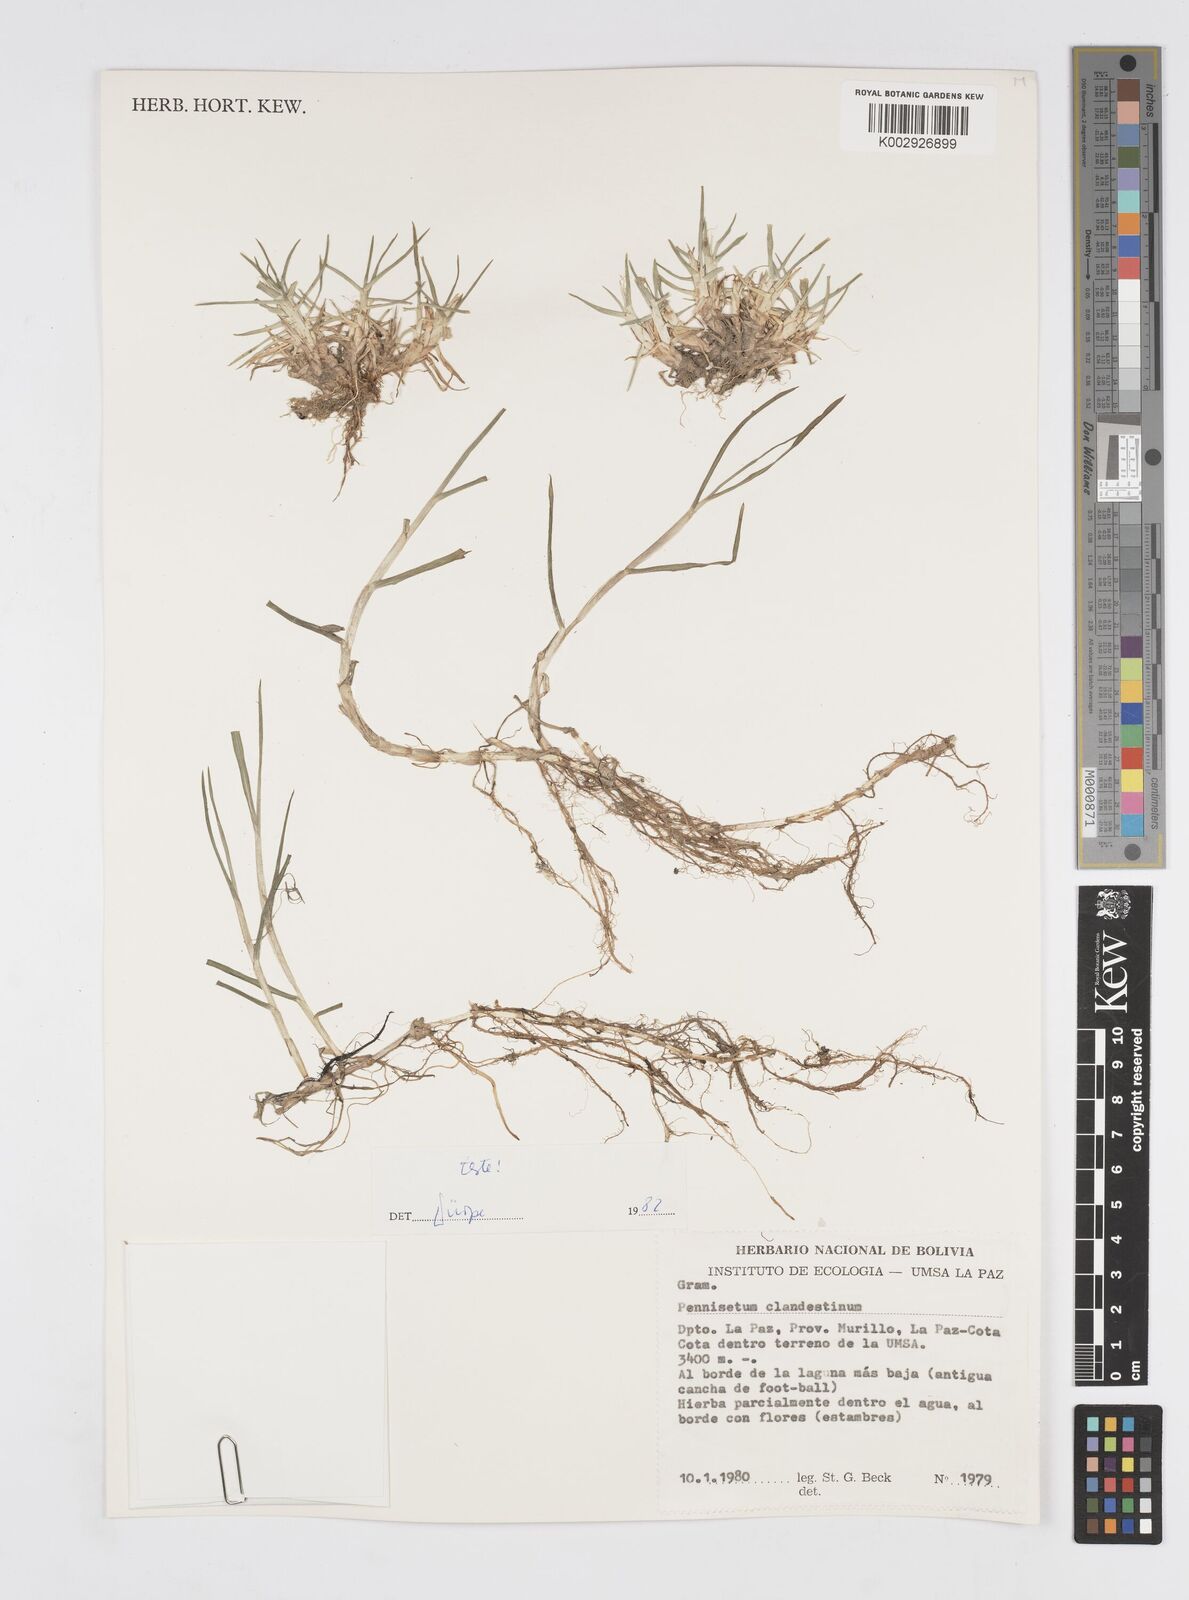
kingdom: Plantae
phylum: Tracheophyta
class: Liliopsida
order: Poales
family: Poaceae
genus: Cenchrus
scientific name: Cenchrus clandestinus
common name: Kikuyugrass
